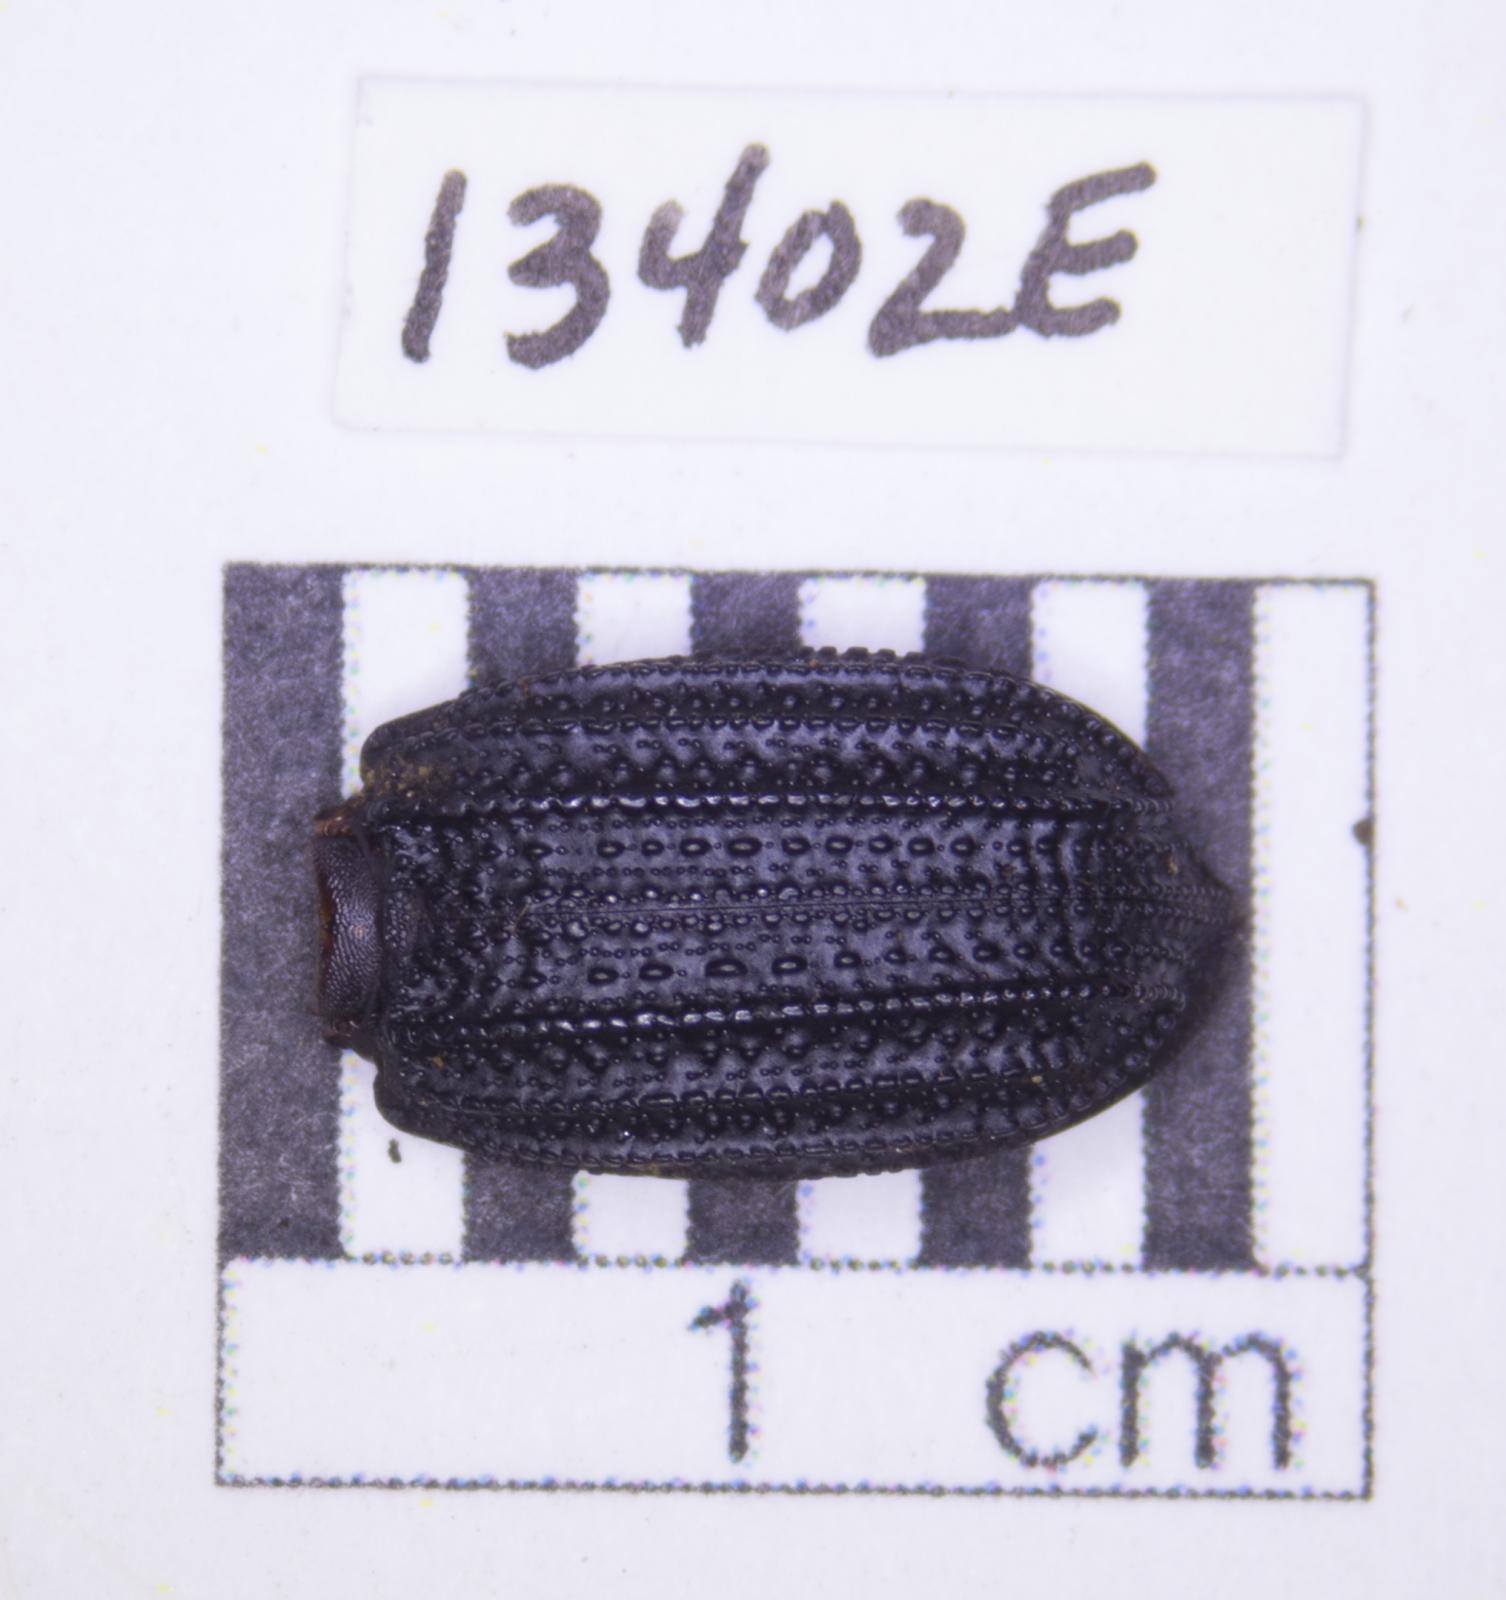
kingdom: Animalia
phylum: Arthropoda
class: Insecta
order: Coleoptera
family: Tenebrionidae
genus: Nyctoporis
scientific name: Nyctoporis carinata
